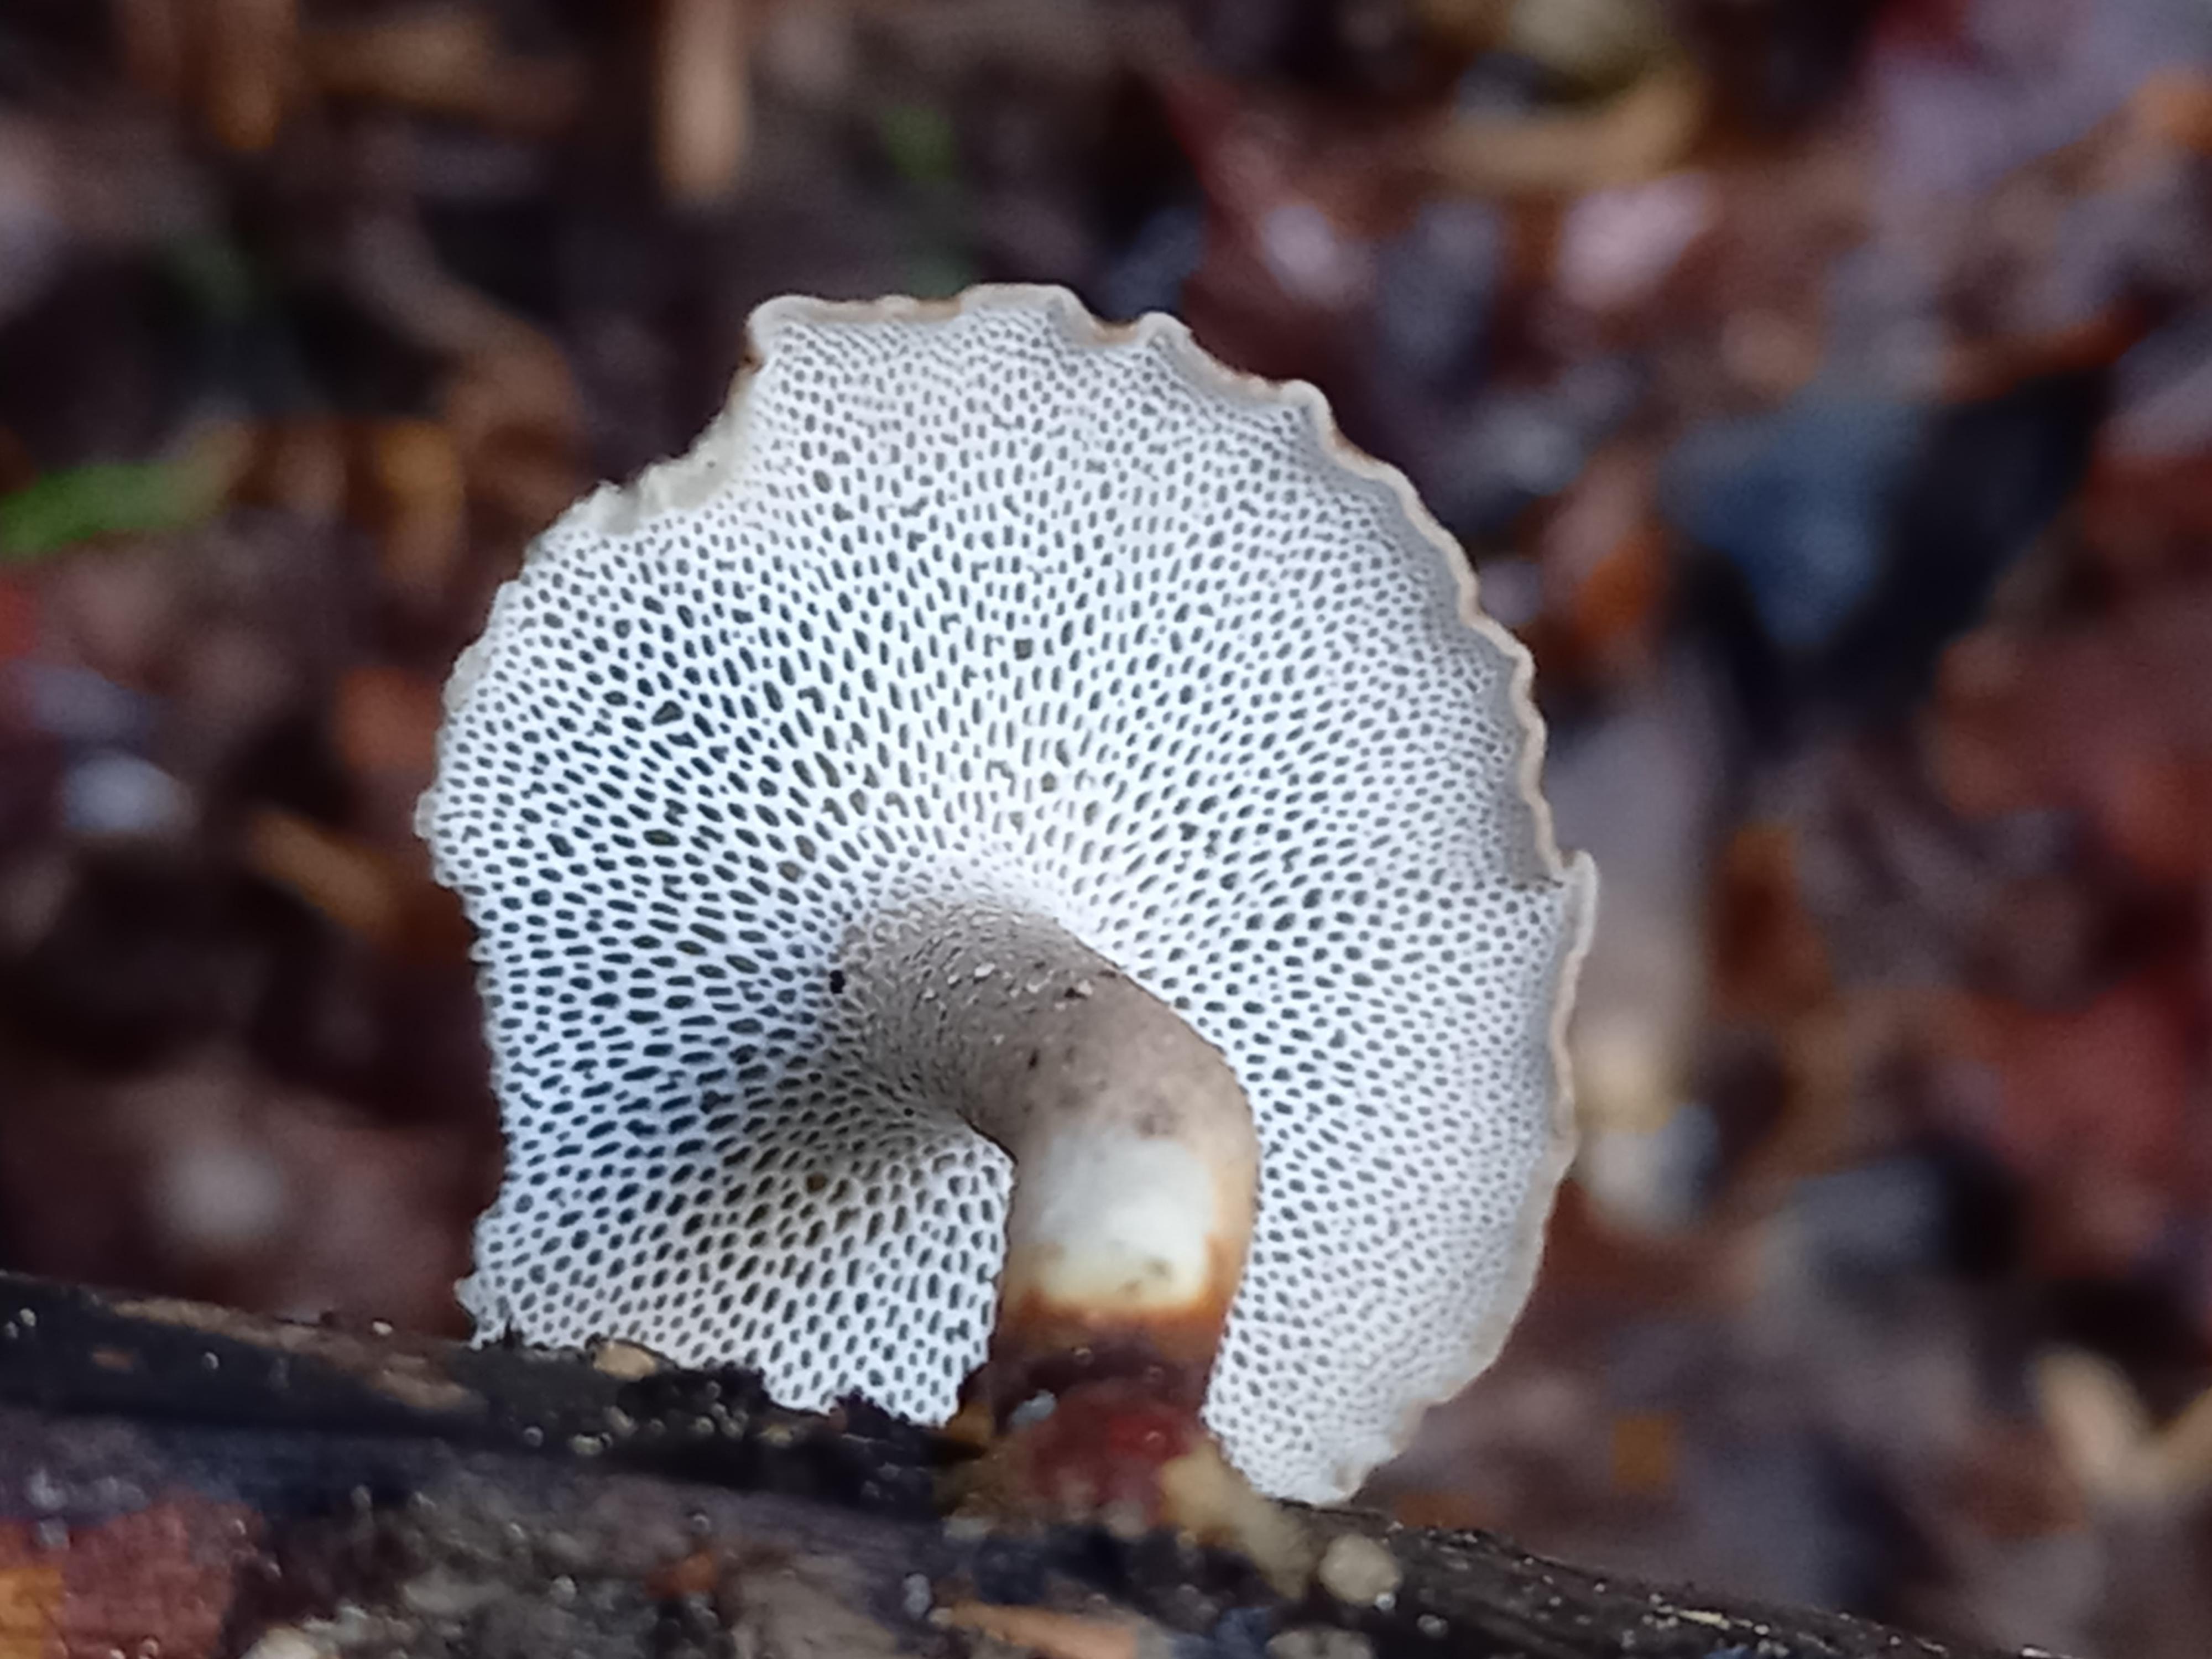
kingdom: Fungi
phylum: Basidiomycota
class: Agaricomycetes
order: Polyporales
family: Polyporaceae
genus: Lentinus
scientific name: Lentinus brumalis
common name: vinter-stilkporesvamp
